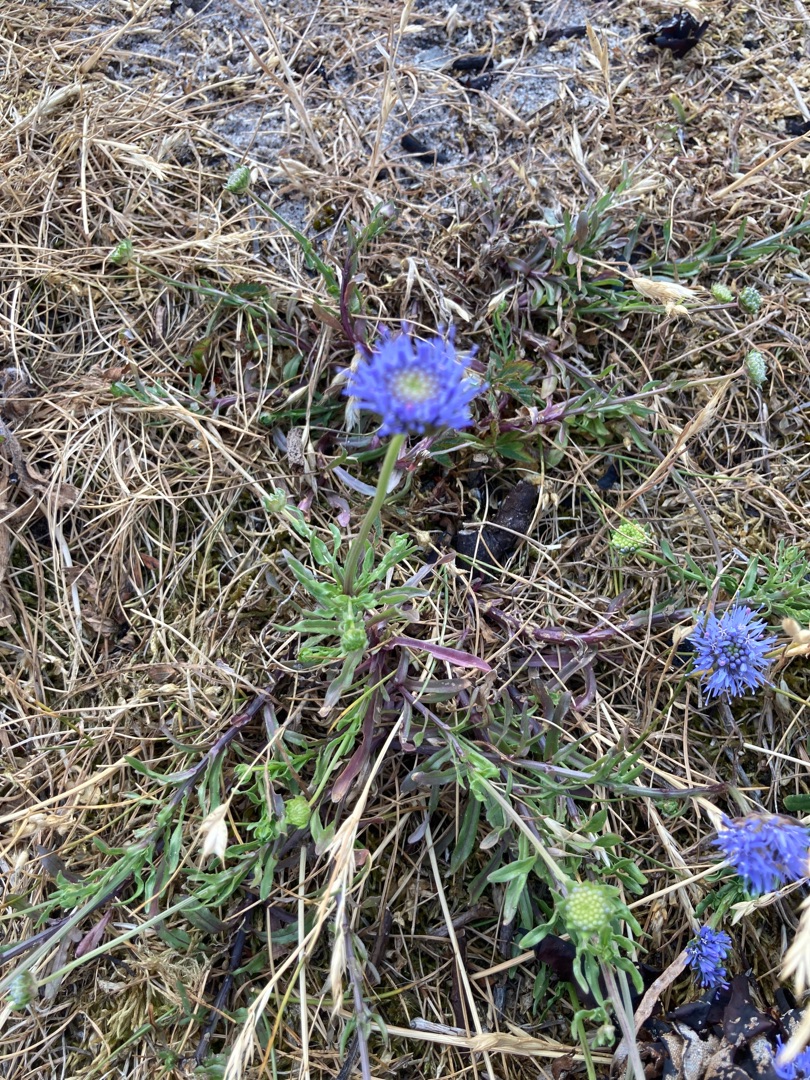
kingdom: Plantae
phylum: Tracheophyta
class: Magnoliopsida
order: Asterales
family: Campanulaceae
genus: Jasione
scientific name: Jasione montana
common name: Blåmunke
